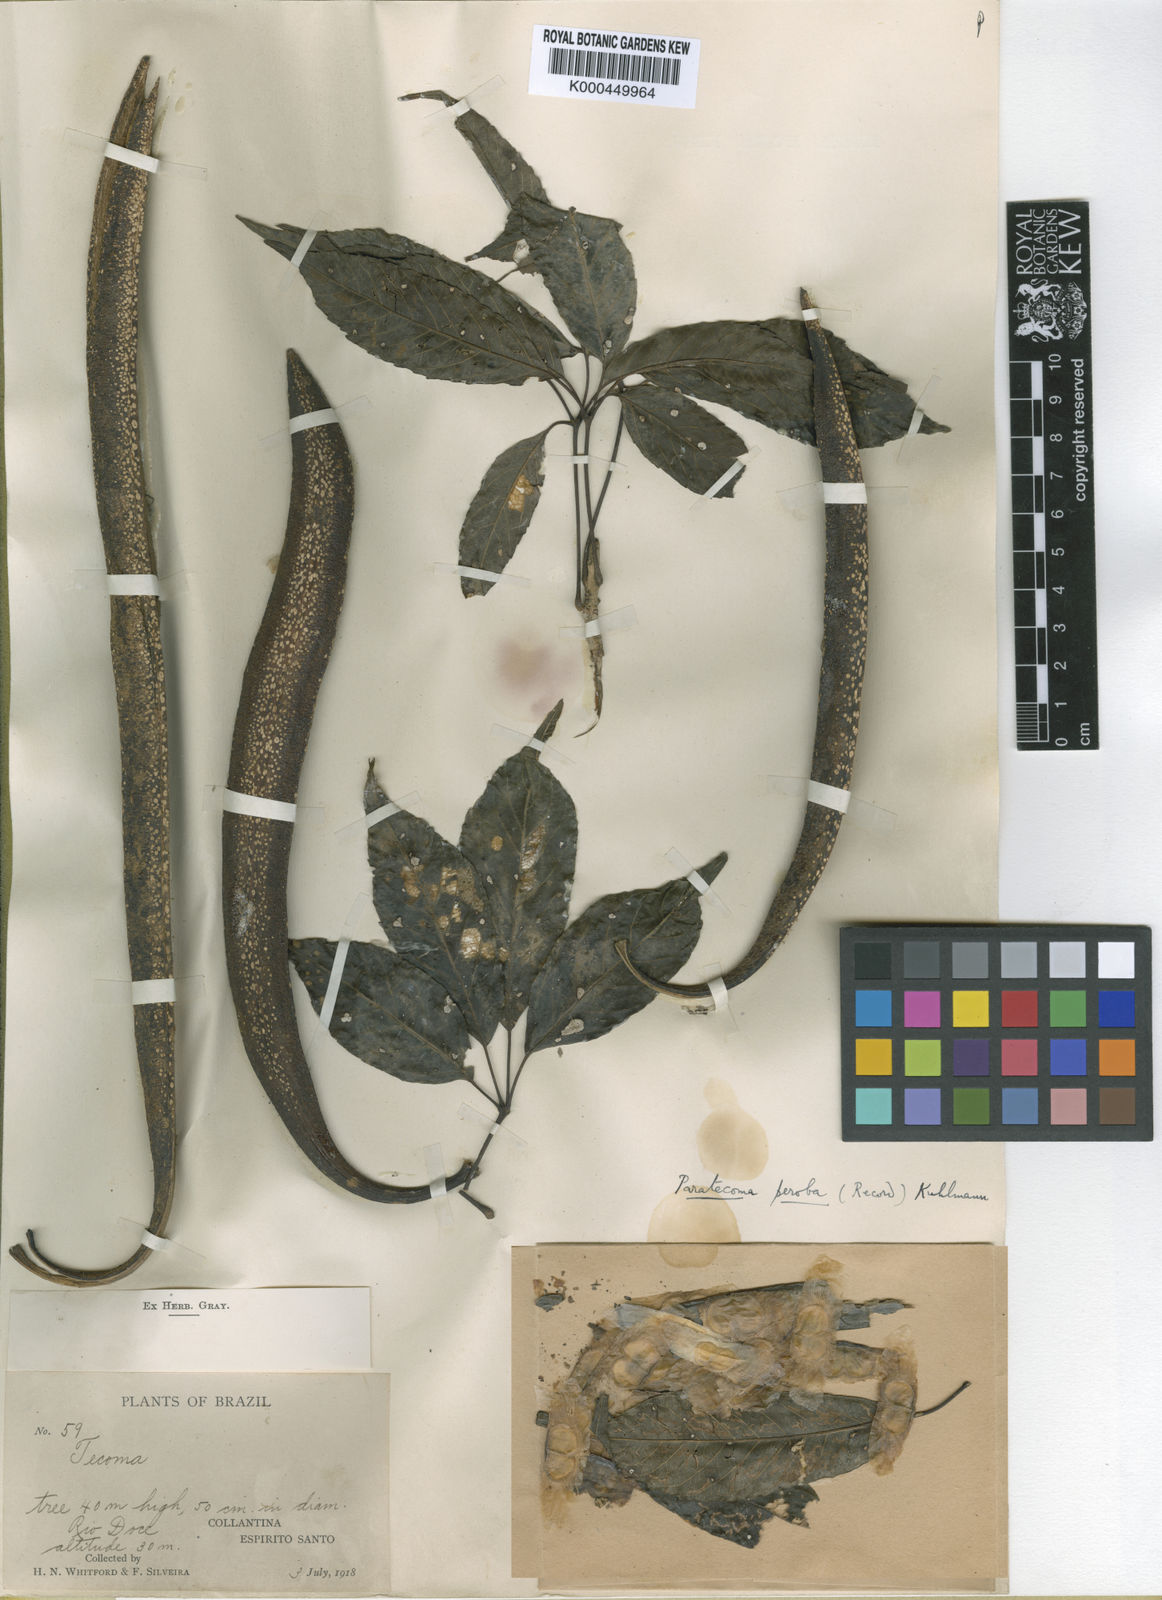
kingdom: Plantae
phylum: Tracheophyta
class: Magnoliopsida
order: Lamiales
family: Bignoniaceae
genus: Paratecoma
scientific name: Paratecoma peroba
